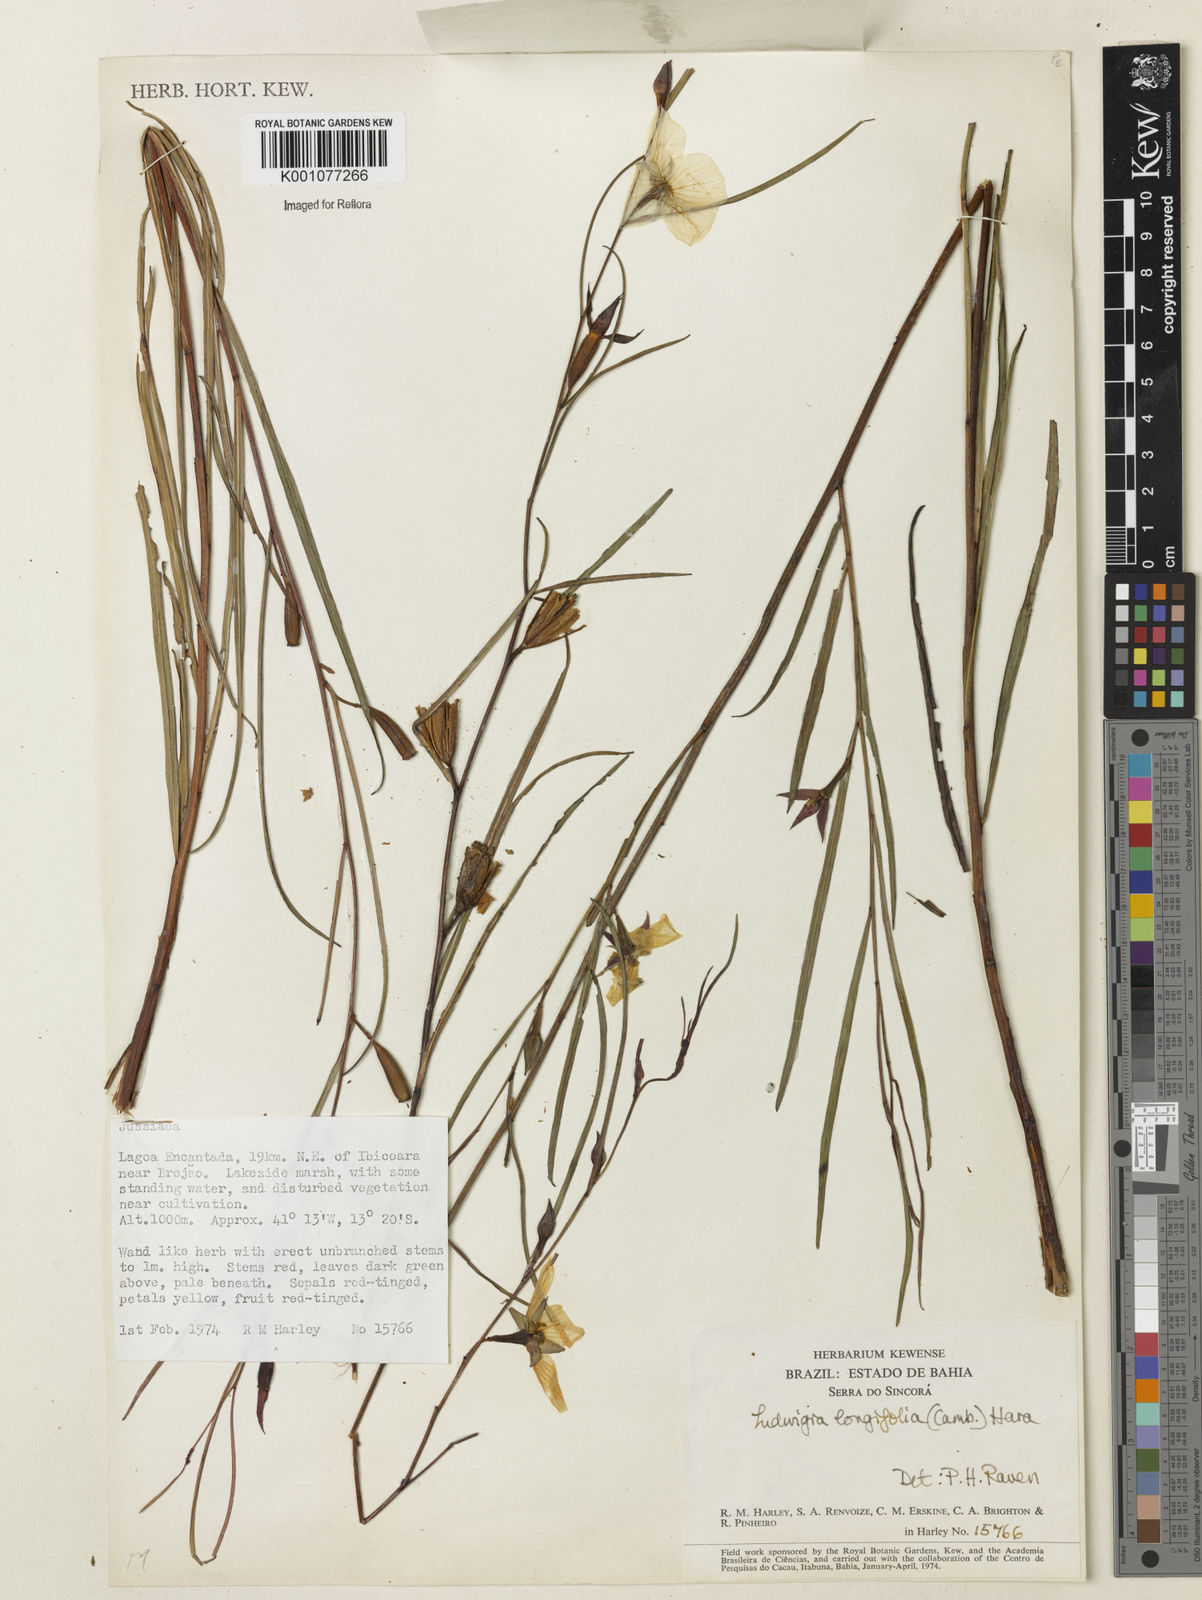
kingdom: Plantae
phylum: Tracheophyta
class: Magnoliopsida
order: Myrtales
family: Onagraceae
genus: Ludwigia
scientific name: Ludwigia longifolia
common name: Longleaf primrose-willow
